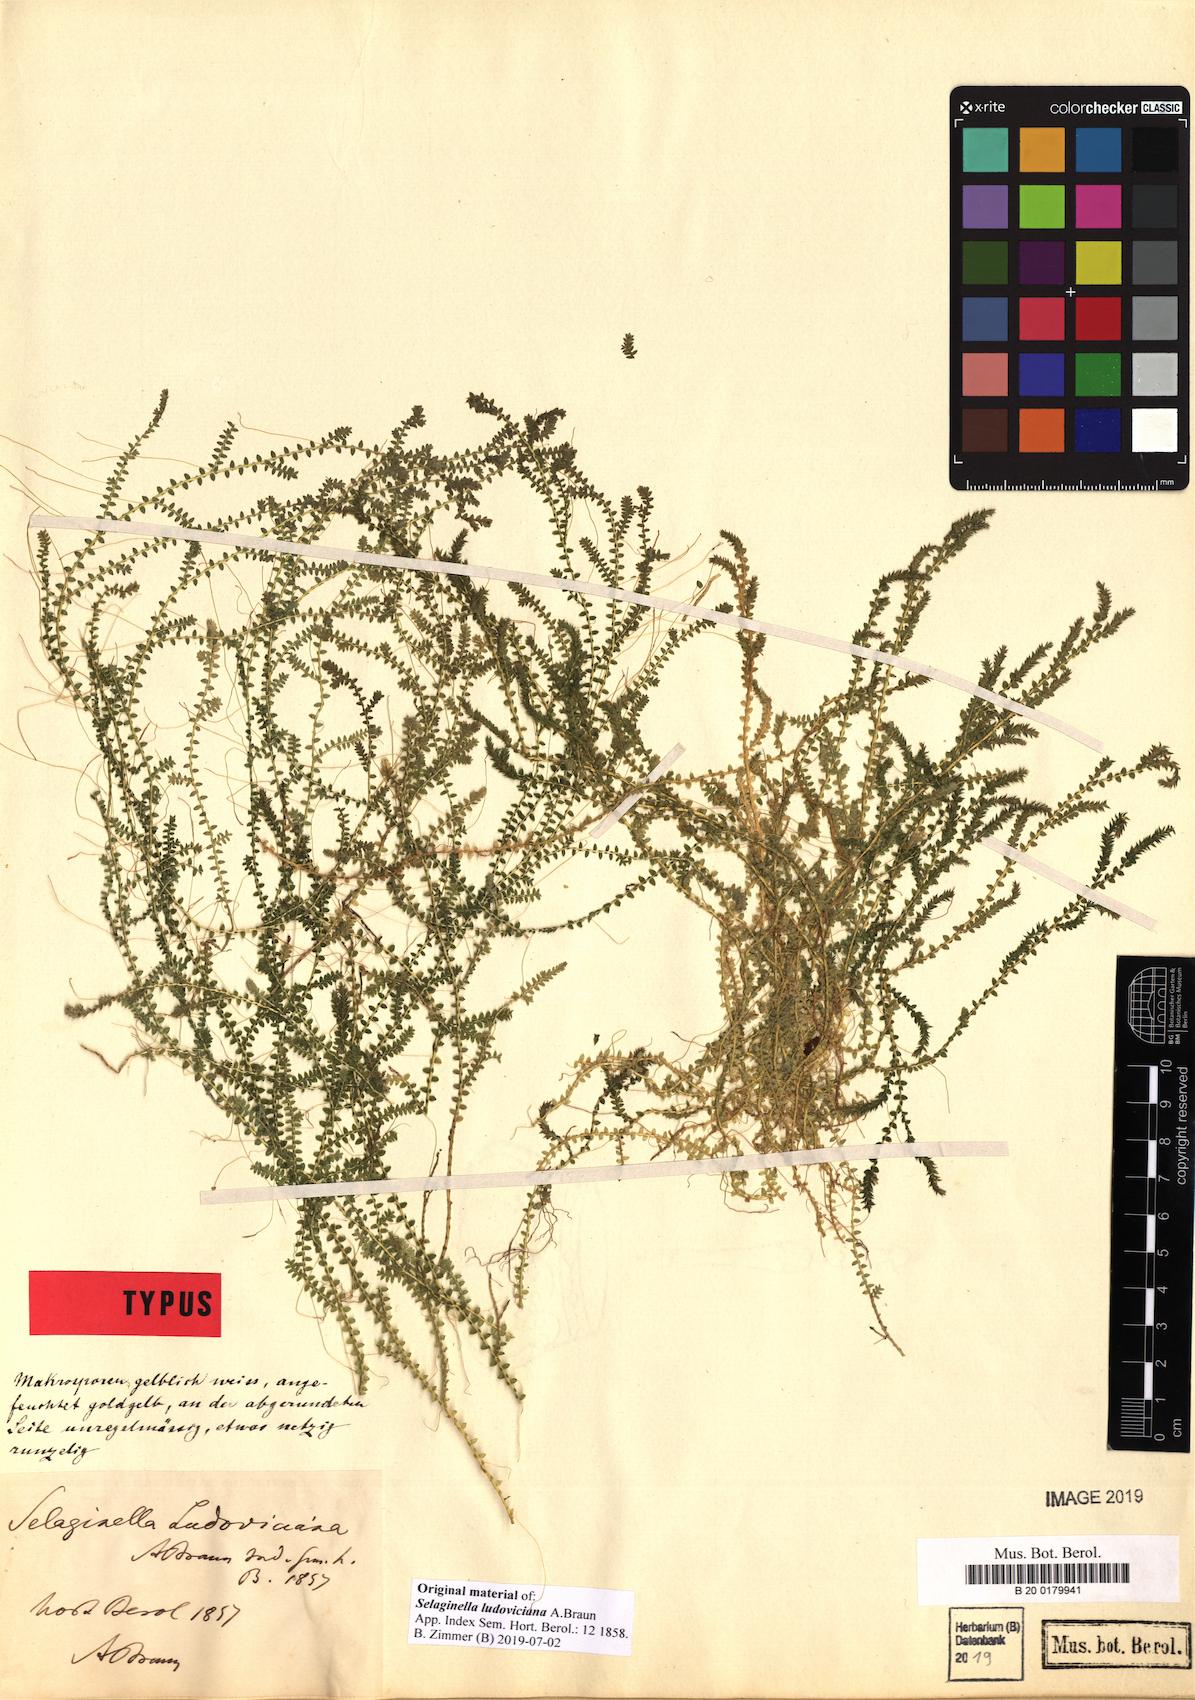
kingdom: Plantae
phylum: Tracheophyta
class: Lycopodiopsida
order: Selaginellales
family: Selaginellaceae
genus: Selaginella
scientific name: Selaginella ludoviciana
